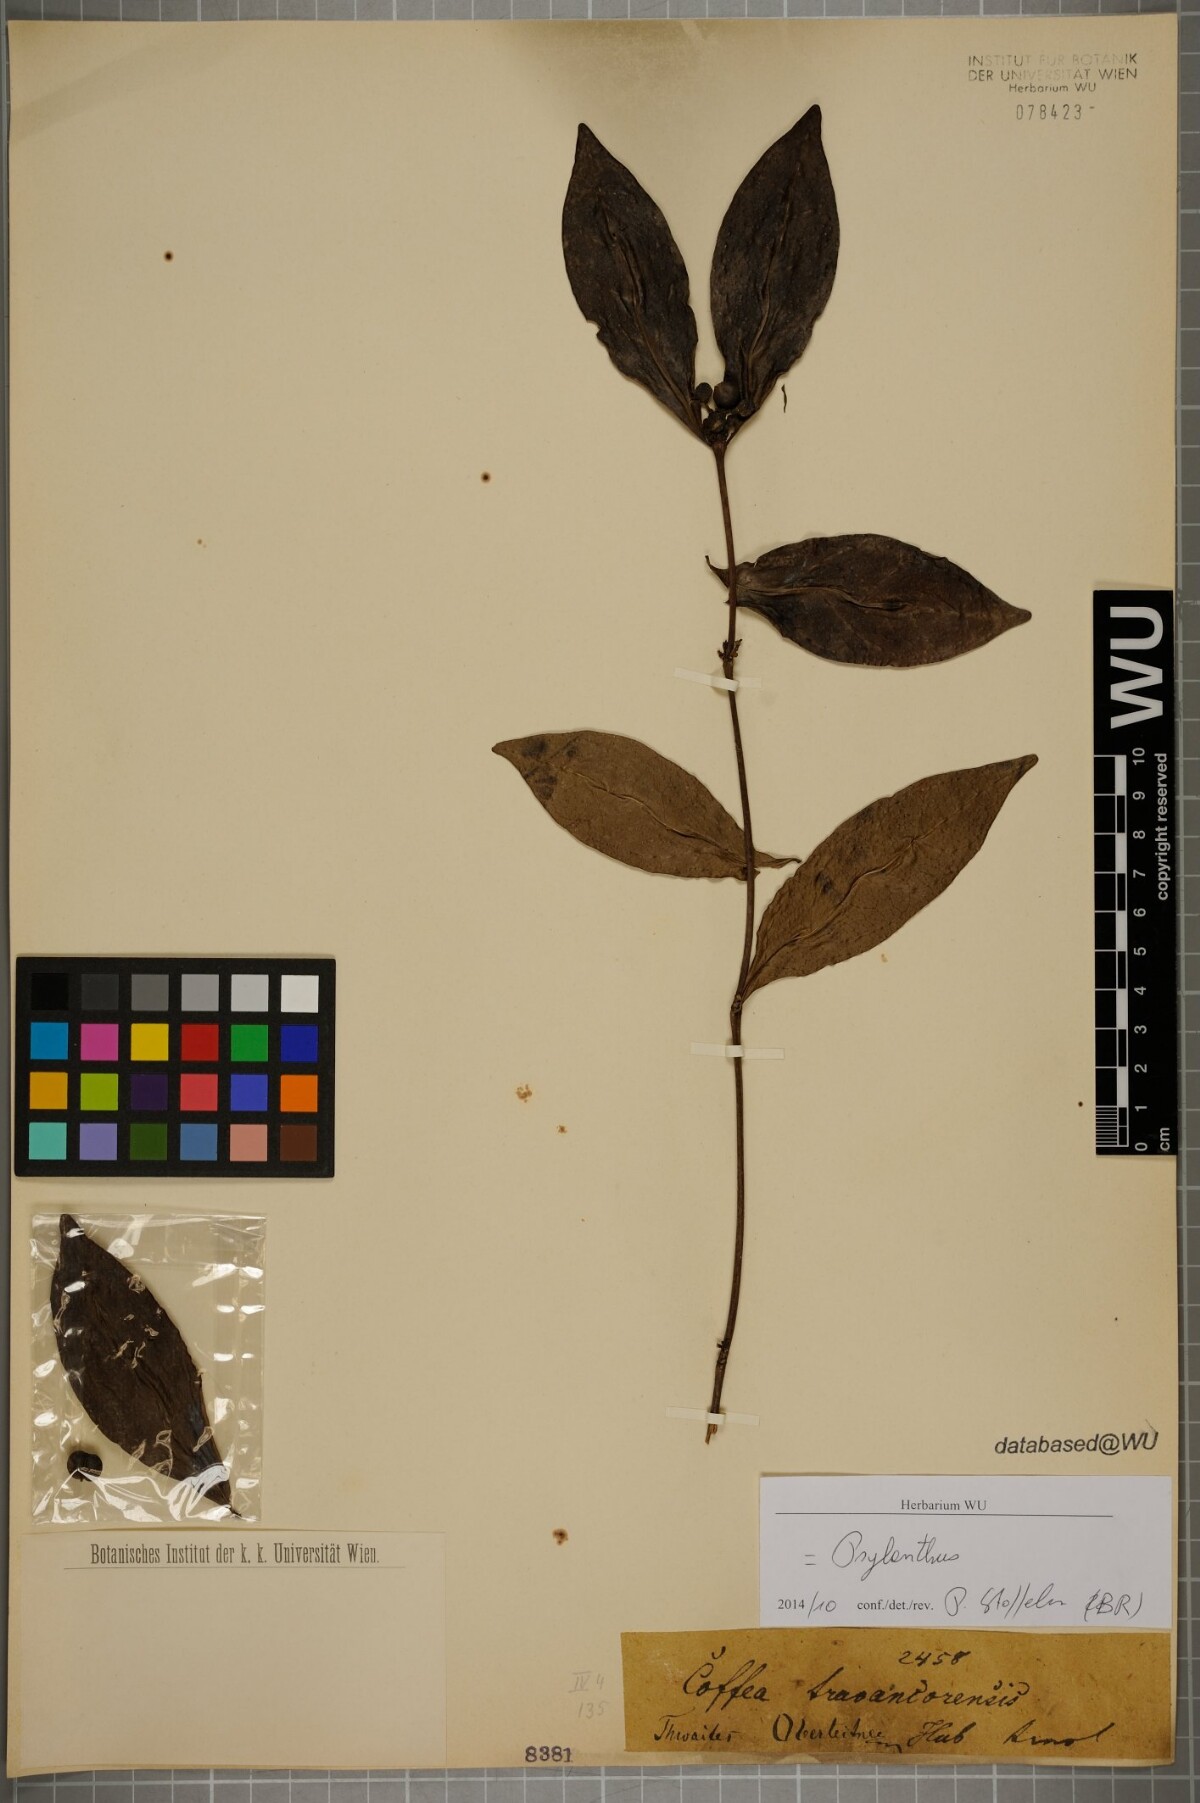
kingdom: Plantae
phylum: Tracheophyta
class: Magnoliopsida
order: Gentianales
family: Rubiaceae
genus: Coffea
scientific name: Coffea travancorensis
